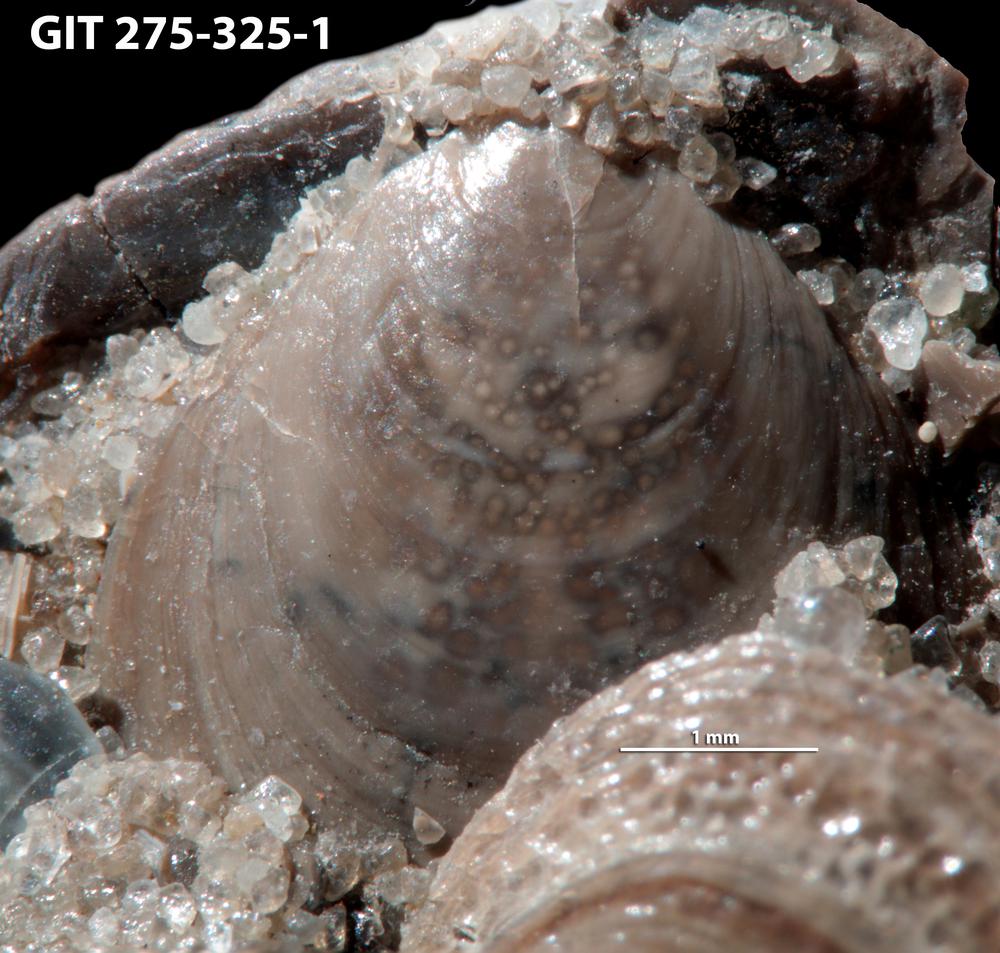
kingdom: Animalia
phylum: Brachiopoda
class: Lingulata
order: Lingulida
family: Obolidae
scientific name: Obolidae
